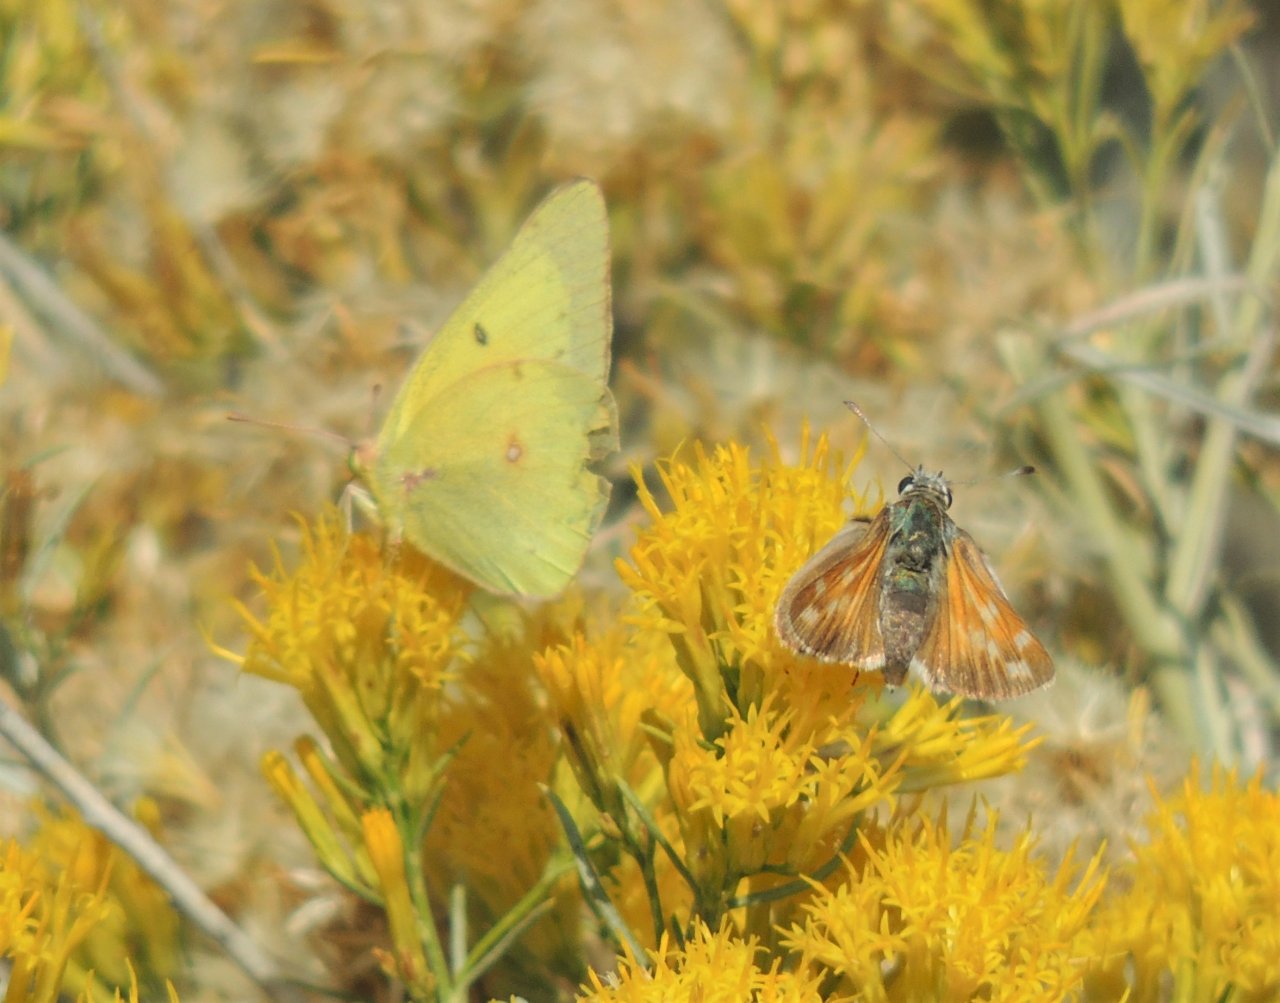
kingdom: Animalia
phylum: Arthropoda
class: Insecta
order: Lepidoptera
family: Pieridae
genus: Colias
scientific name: Colias eurytheme
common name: Orange Sulphur
